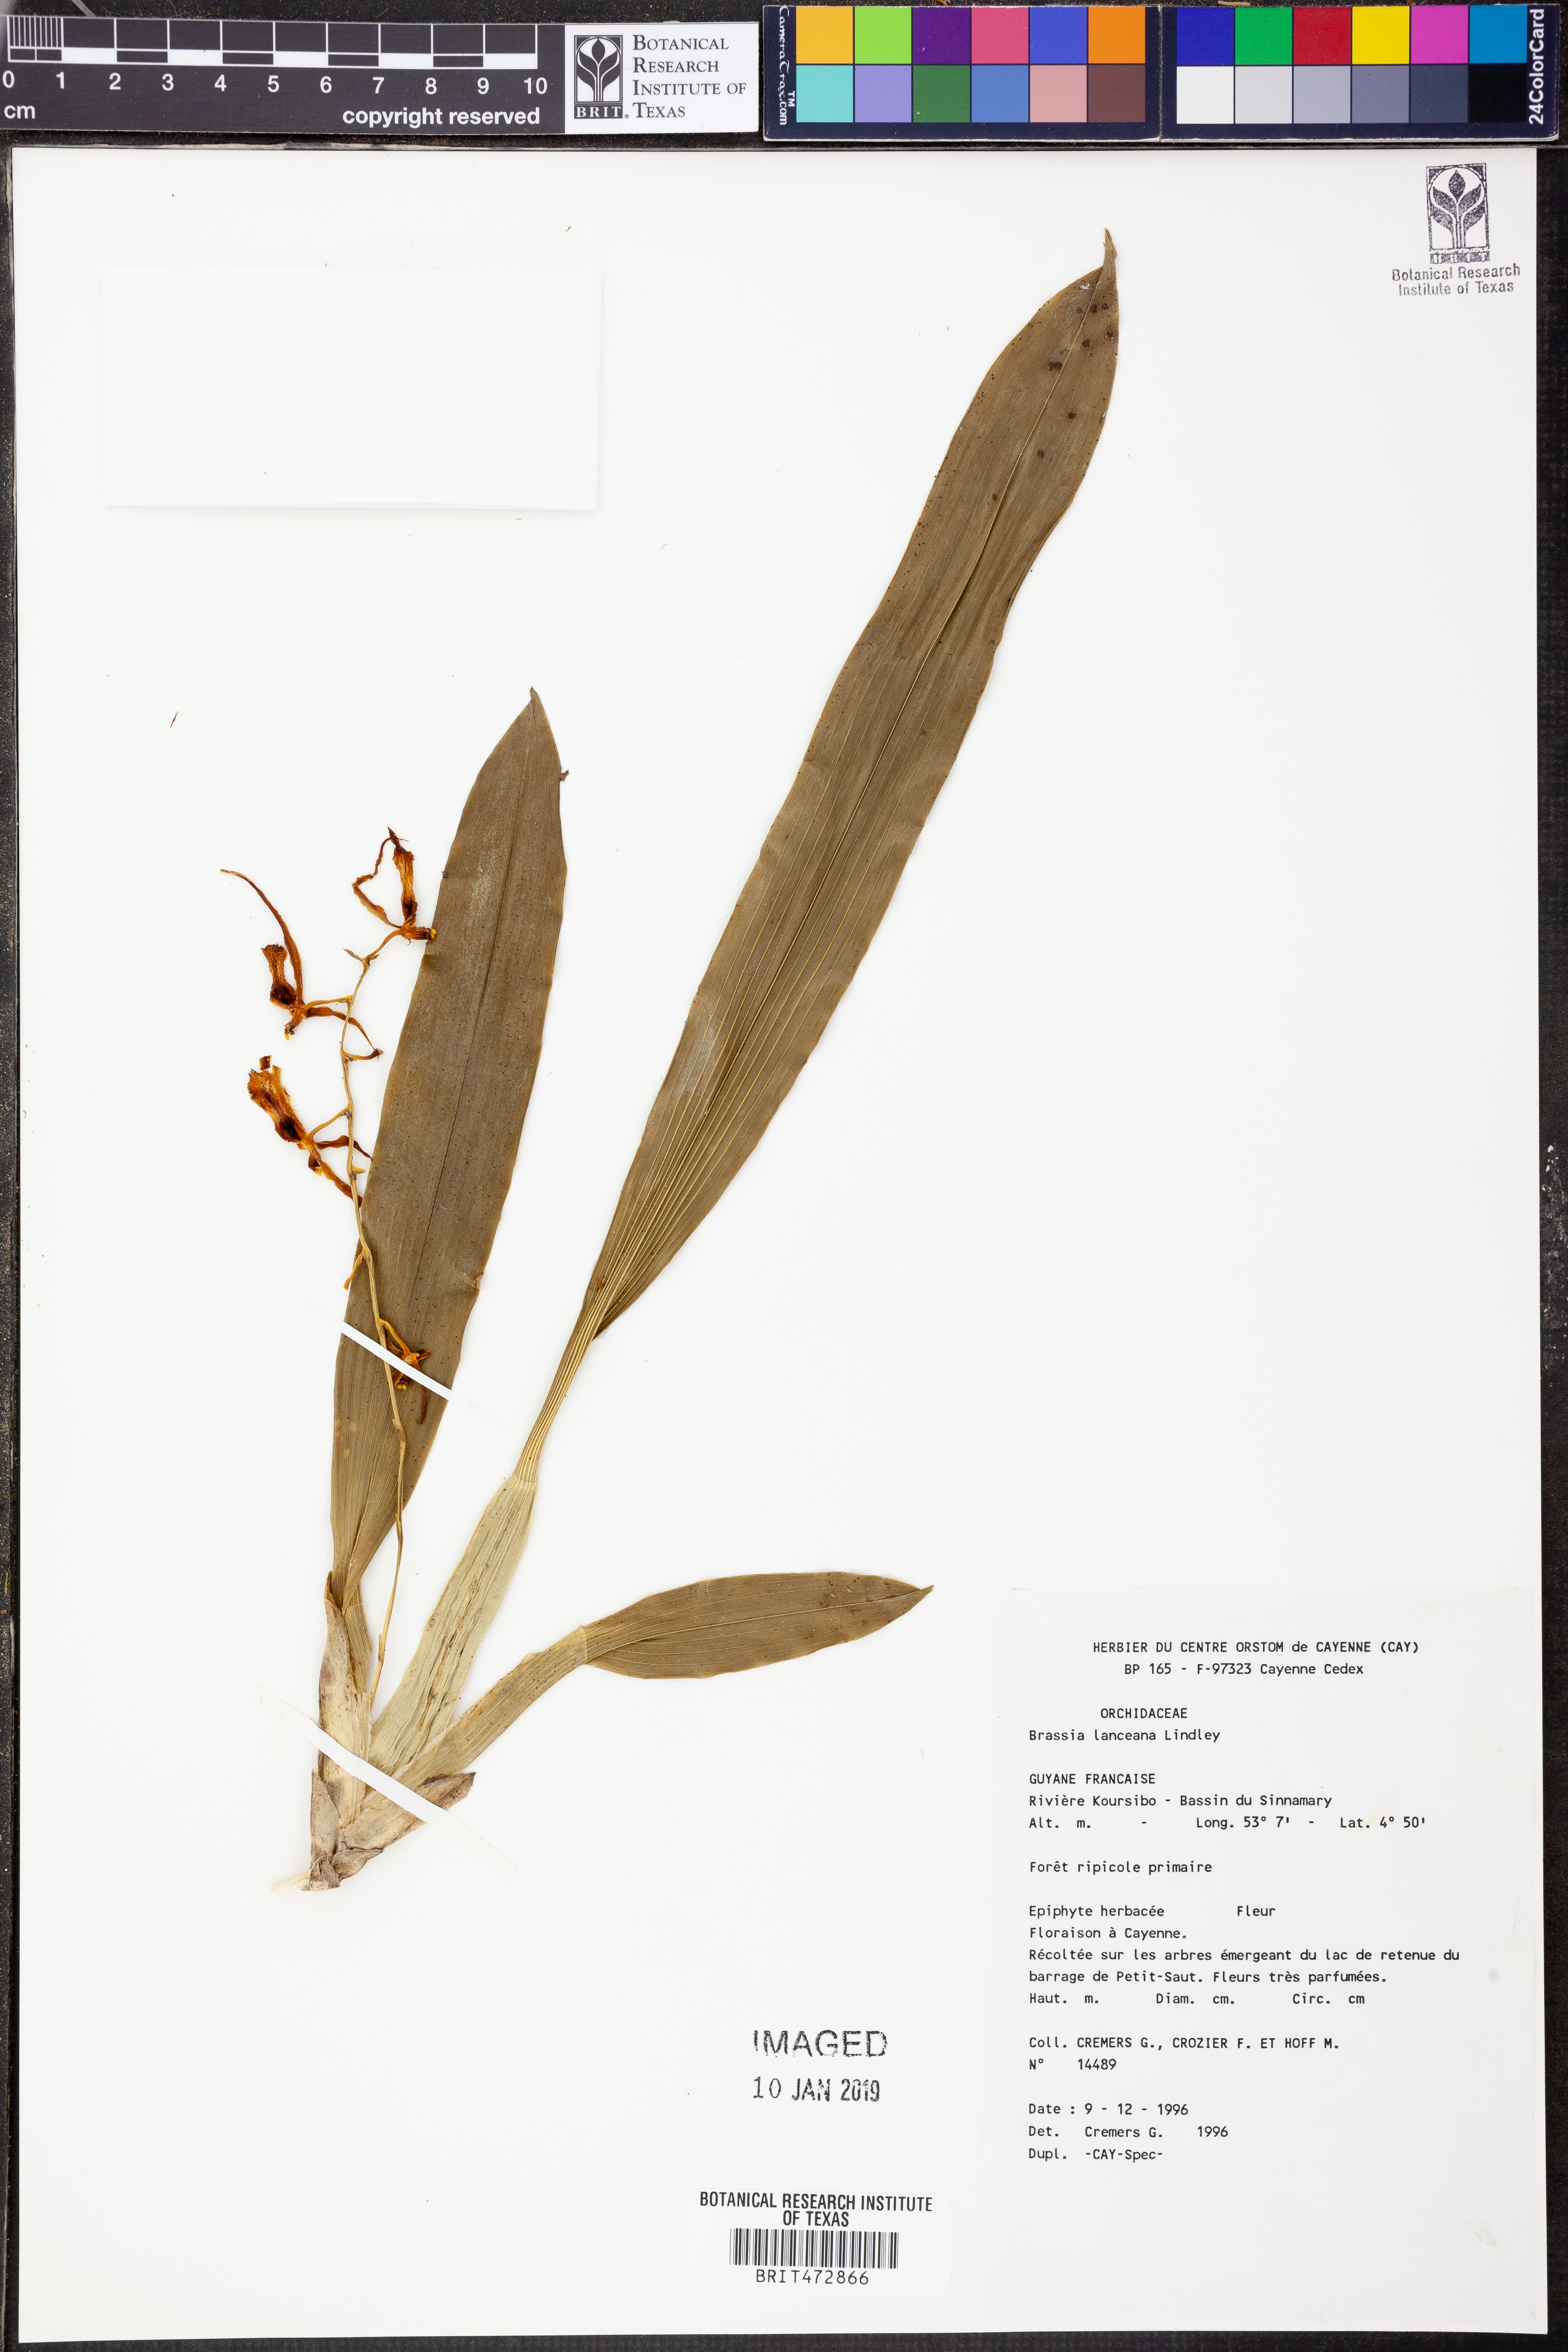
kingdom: Plantae
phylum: Tracheophyta
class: Liliopsida
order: Asparagales
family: Orchidaceae
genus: Brassia
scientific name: Brassia lanceana
